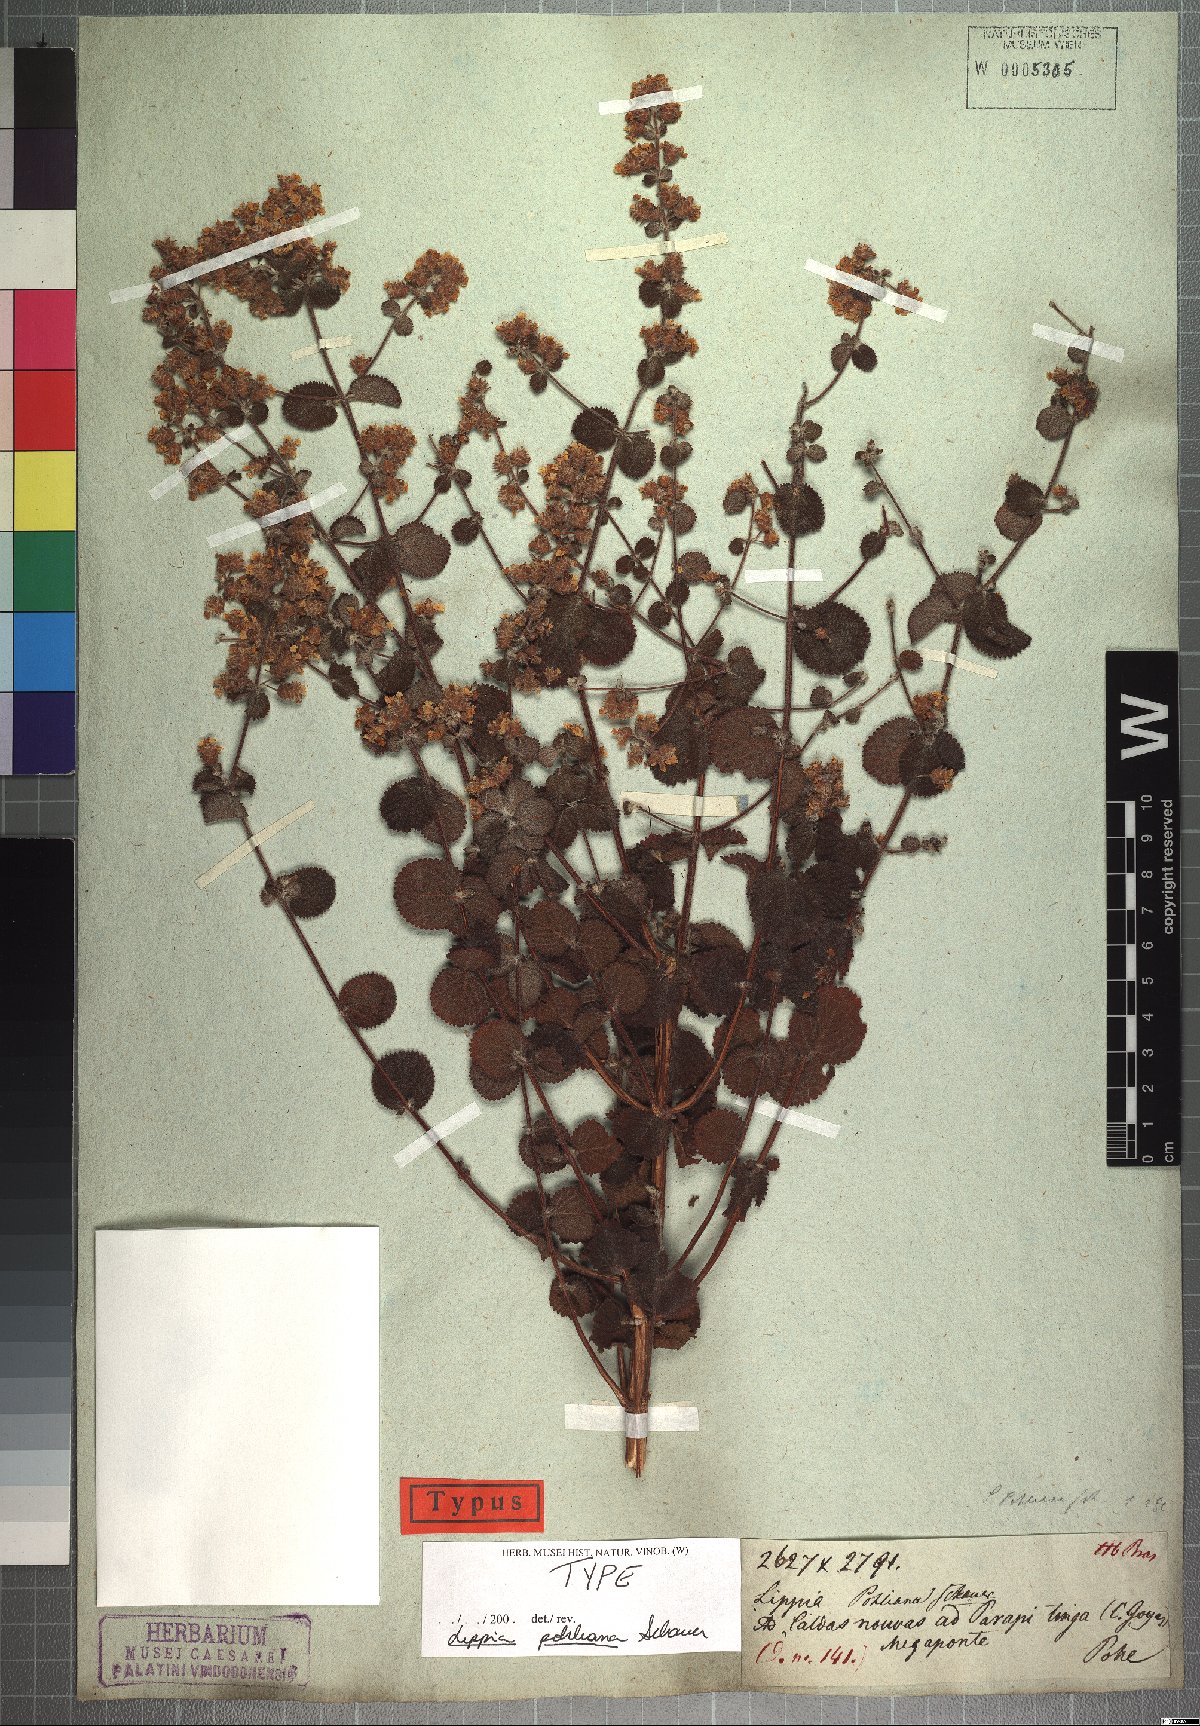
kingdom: Plantae
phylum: Tracheophyta
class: Magnoliopsida
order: Lamiales
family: Verbenaceae
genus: Lippia
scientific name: Lippia martiana
